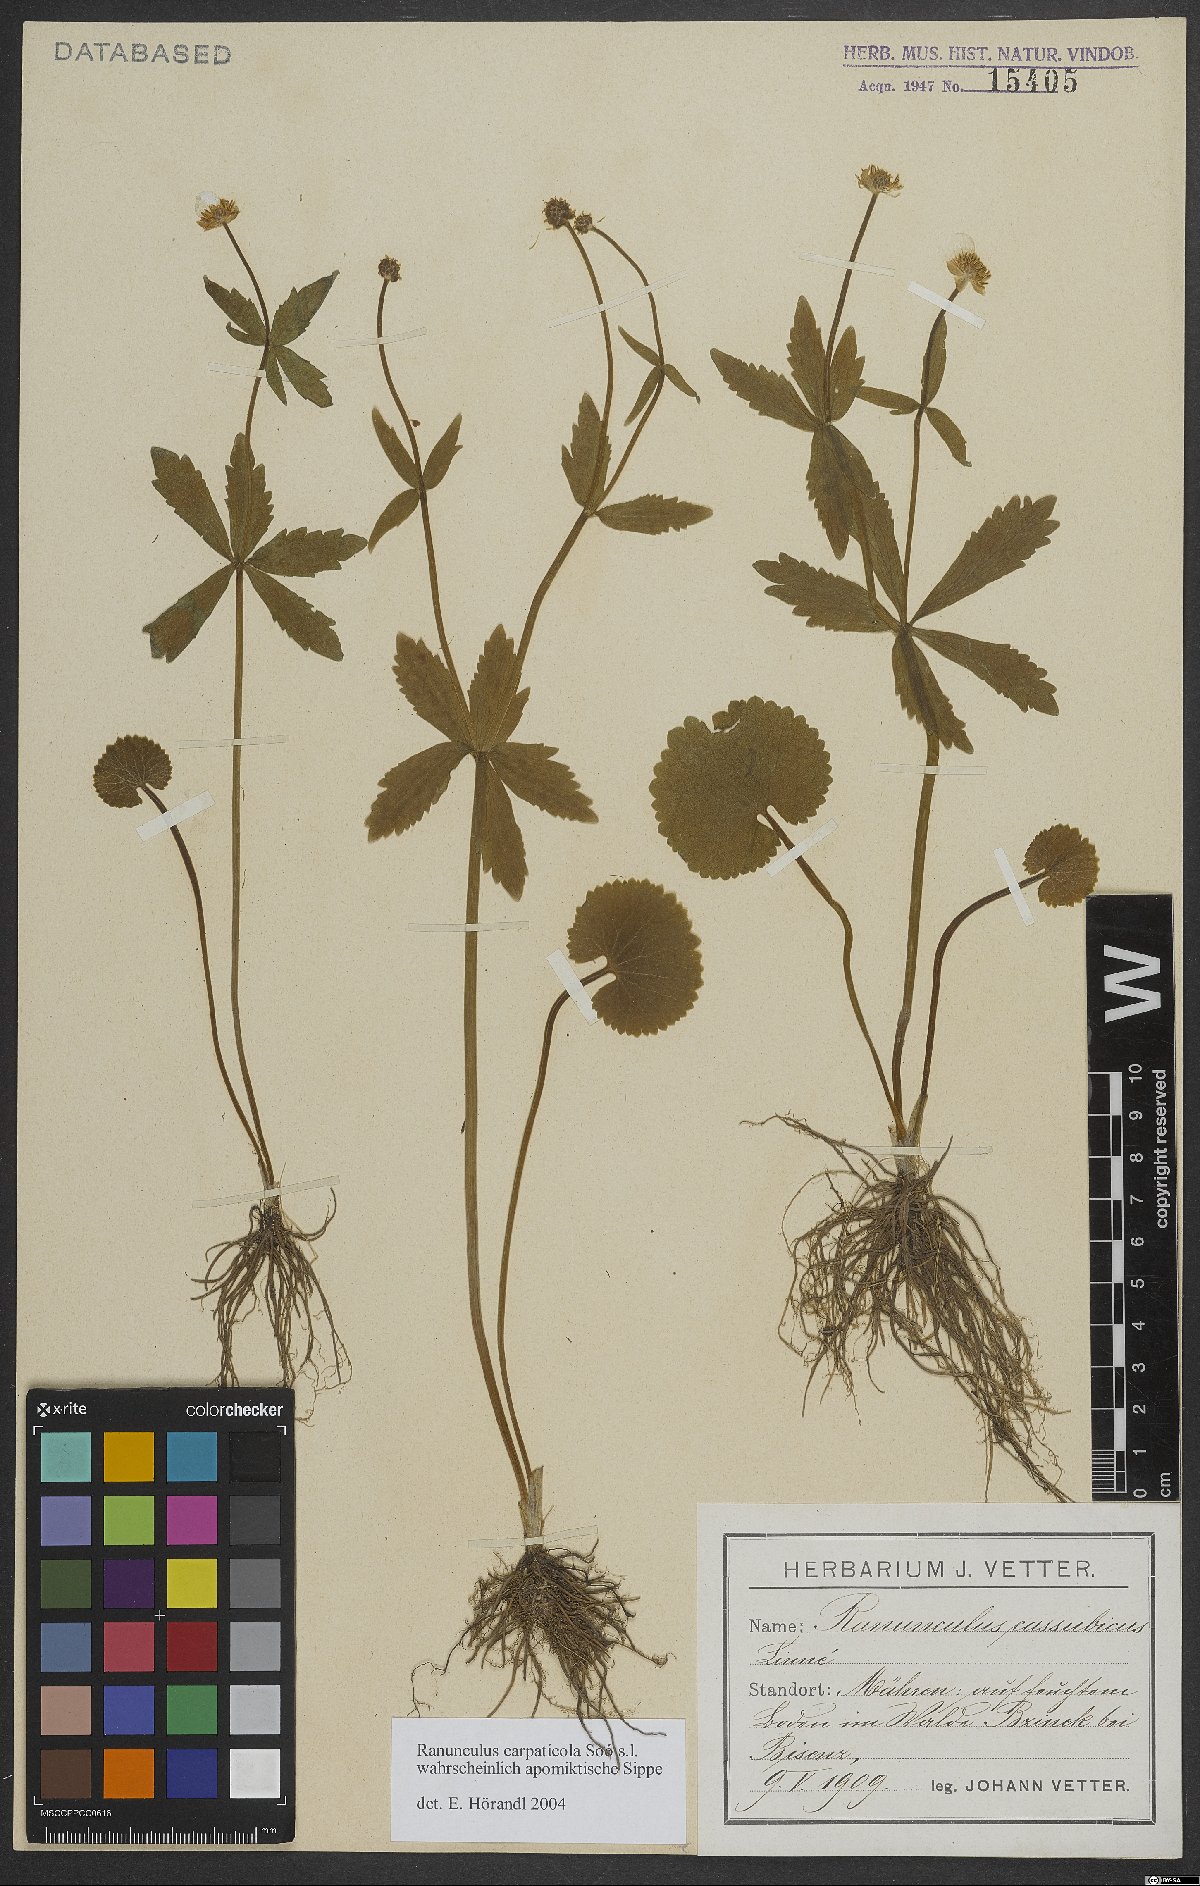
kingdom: Plantae
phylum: Tracheophyta
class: Magnoliopsida
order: Ranunculales
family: Ranunculaceae
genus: Ranunculus
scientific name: Ranunculus cassubicifolius
